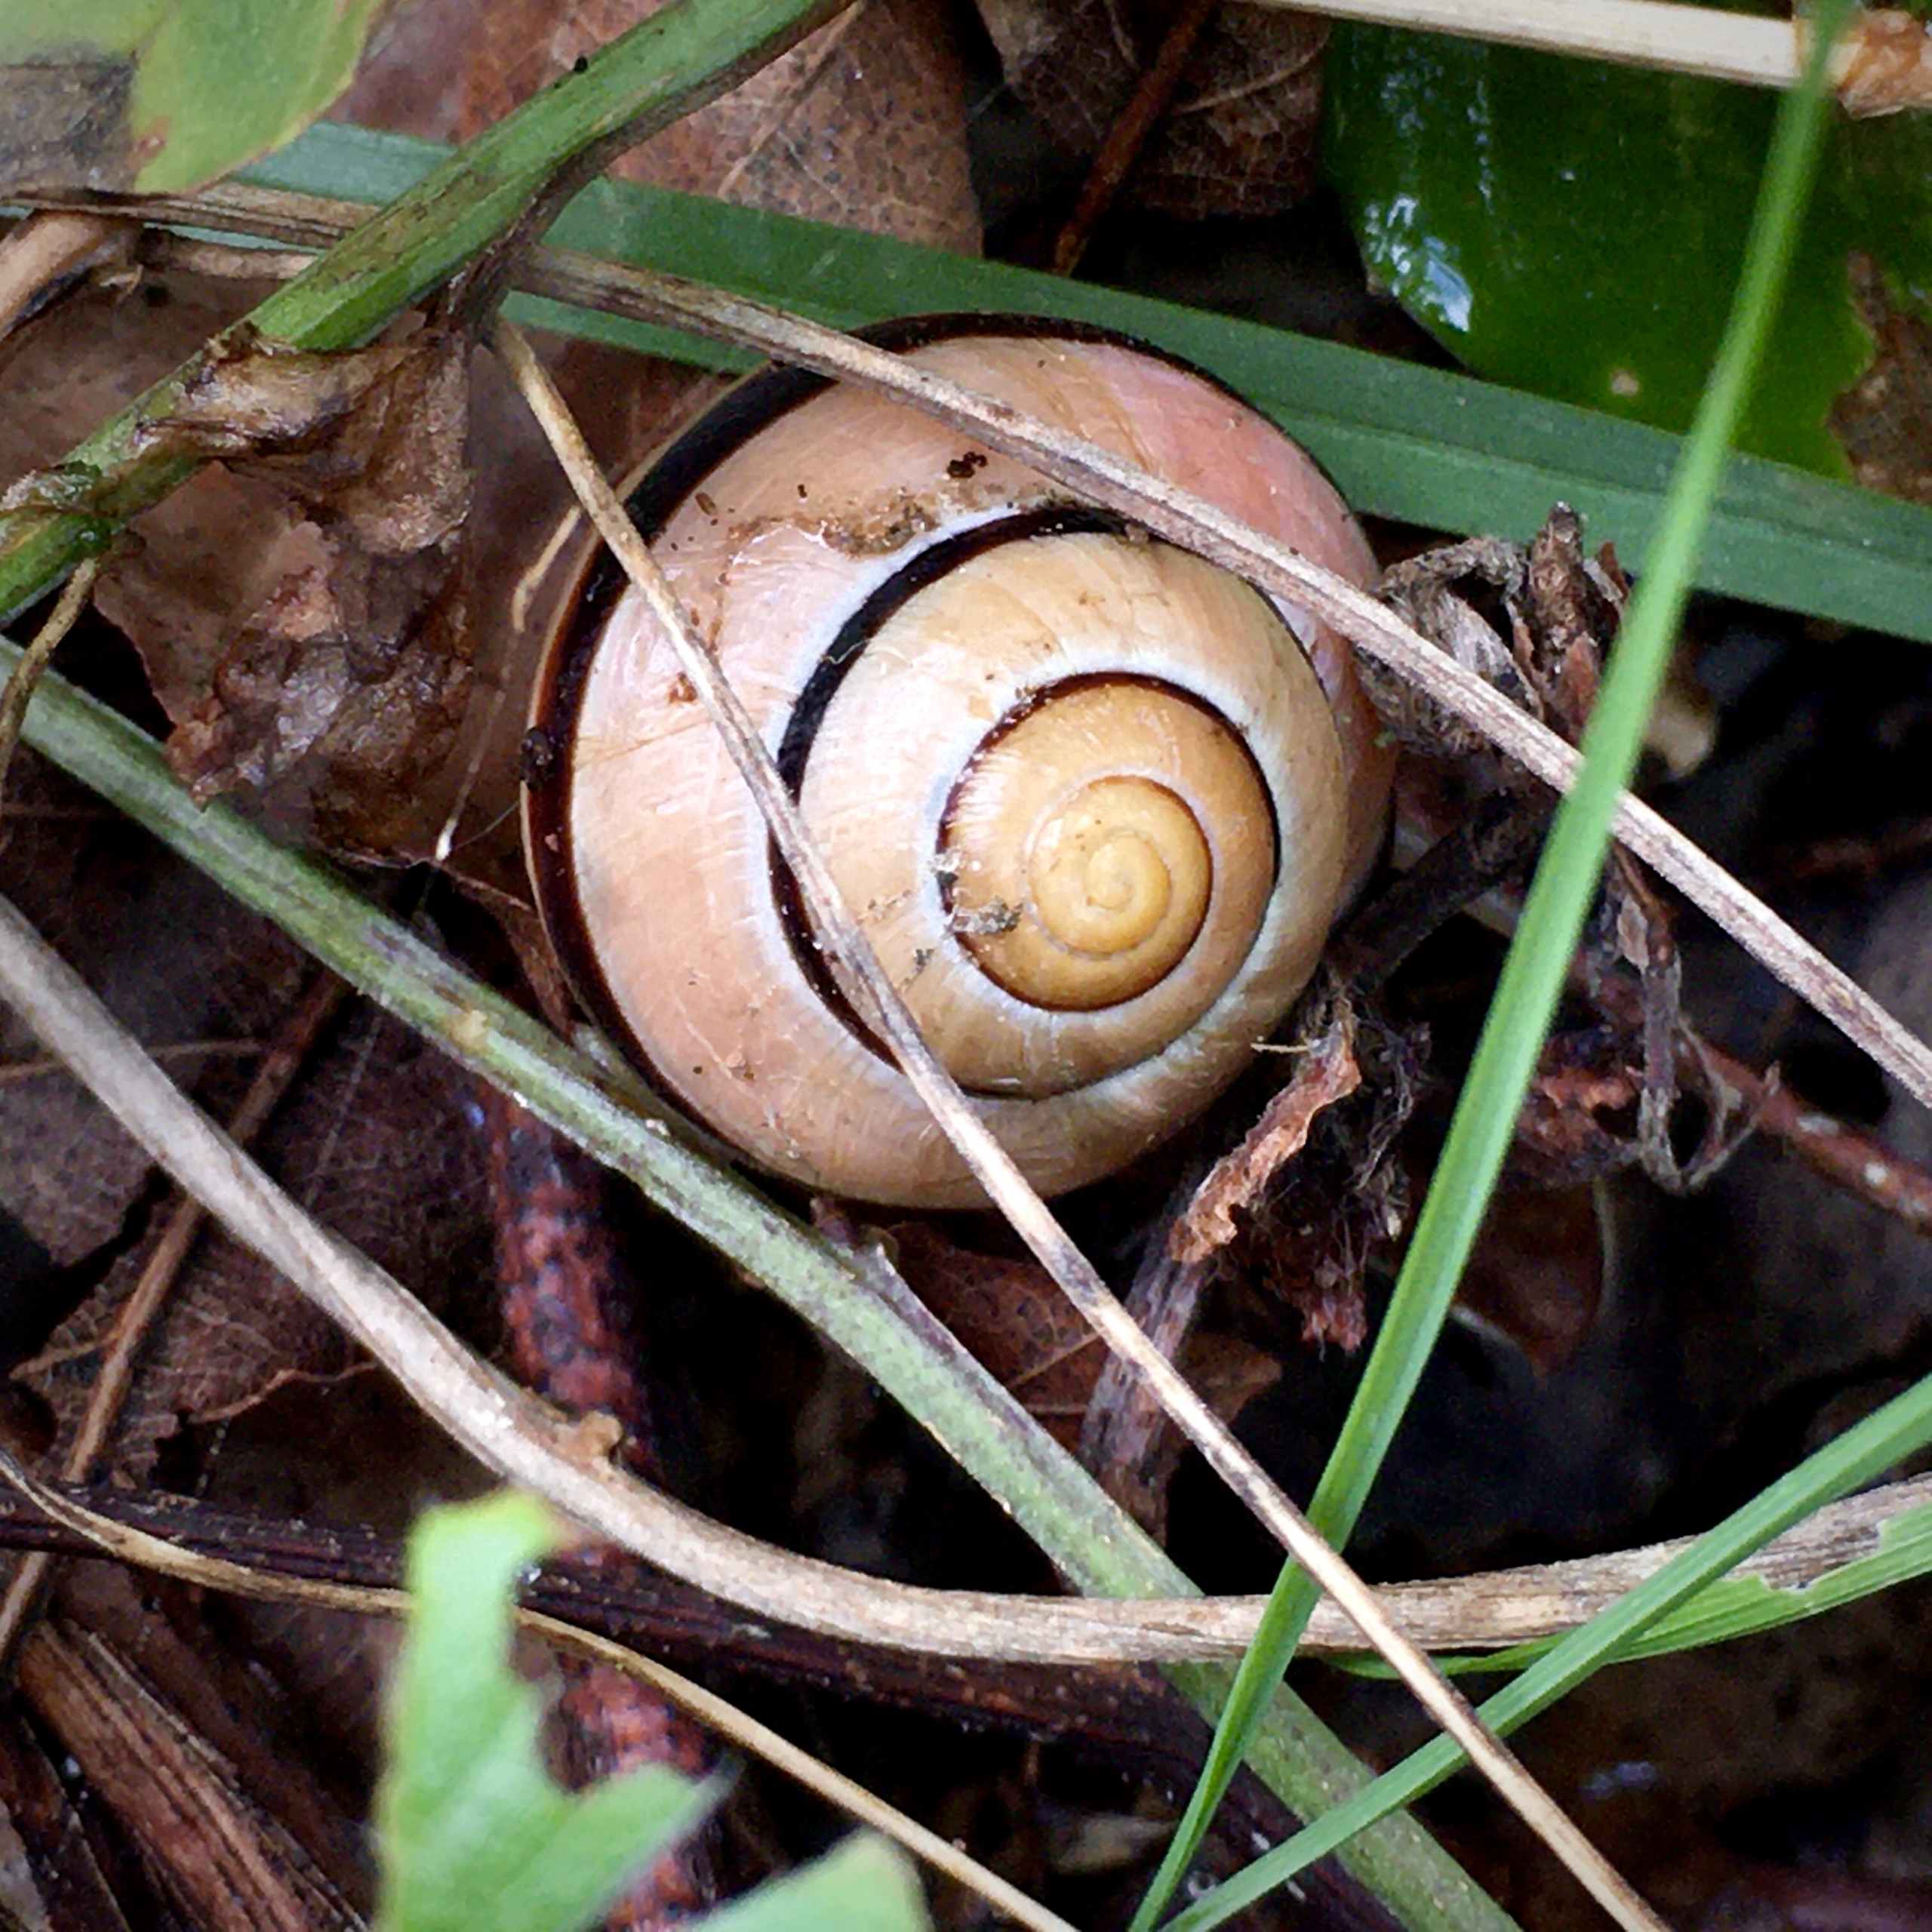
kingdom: Animalia
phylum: Mollusca
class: Gastropoda
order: Stylommatophora
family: Helicidae
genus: Cepaea
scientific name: Cepaea nemoralis
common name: Lundsnegl
